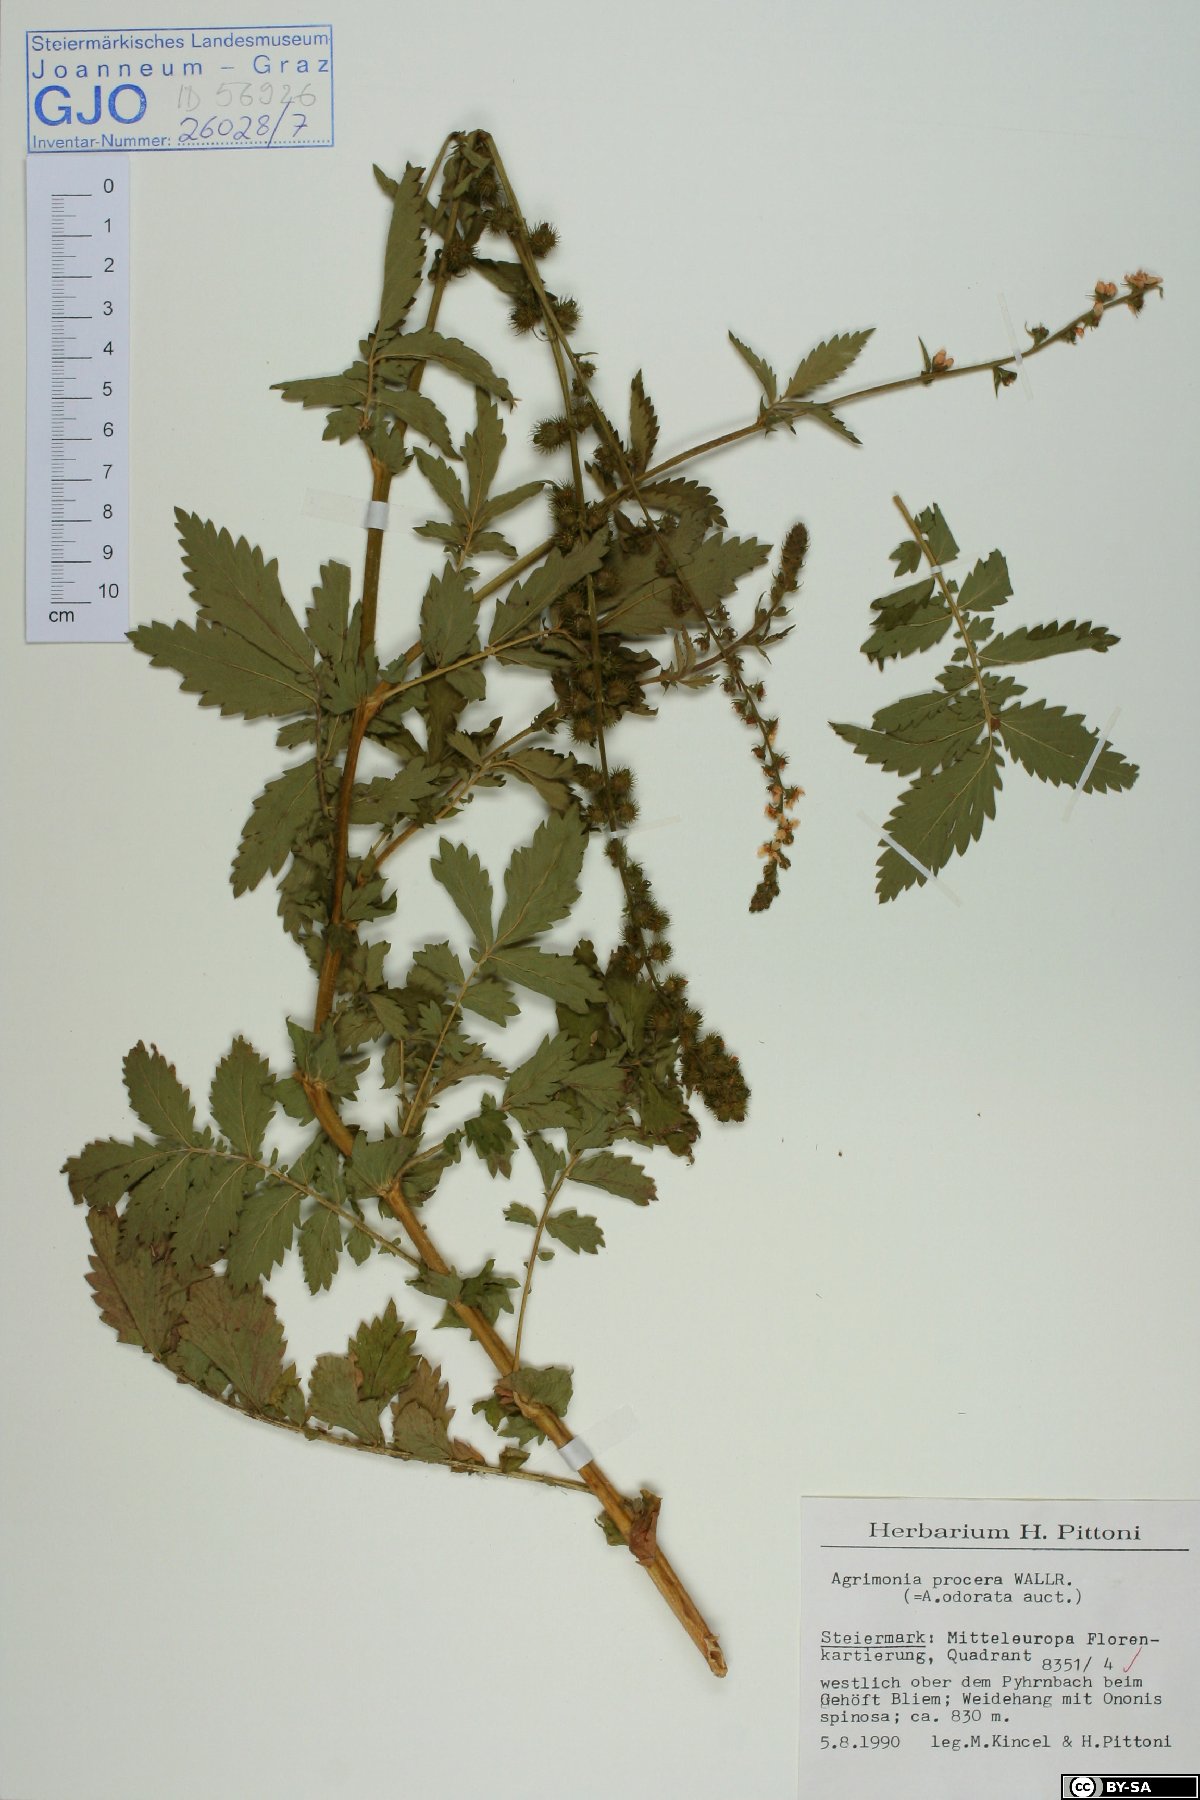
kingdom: Plantae
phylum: Tracheophyta
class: Magnoliopsida
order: Rosales
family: Rosaceae
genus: Agrimonia
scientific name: Agrimonia procera
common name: Fragrant agrimony
